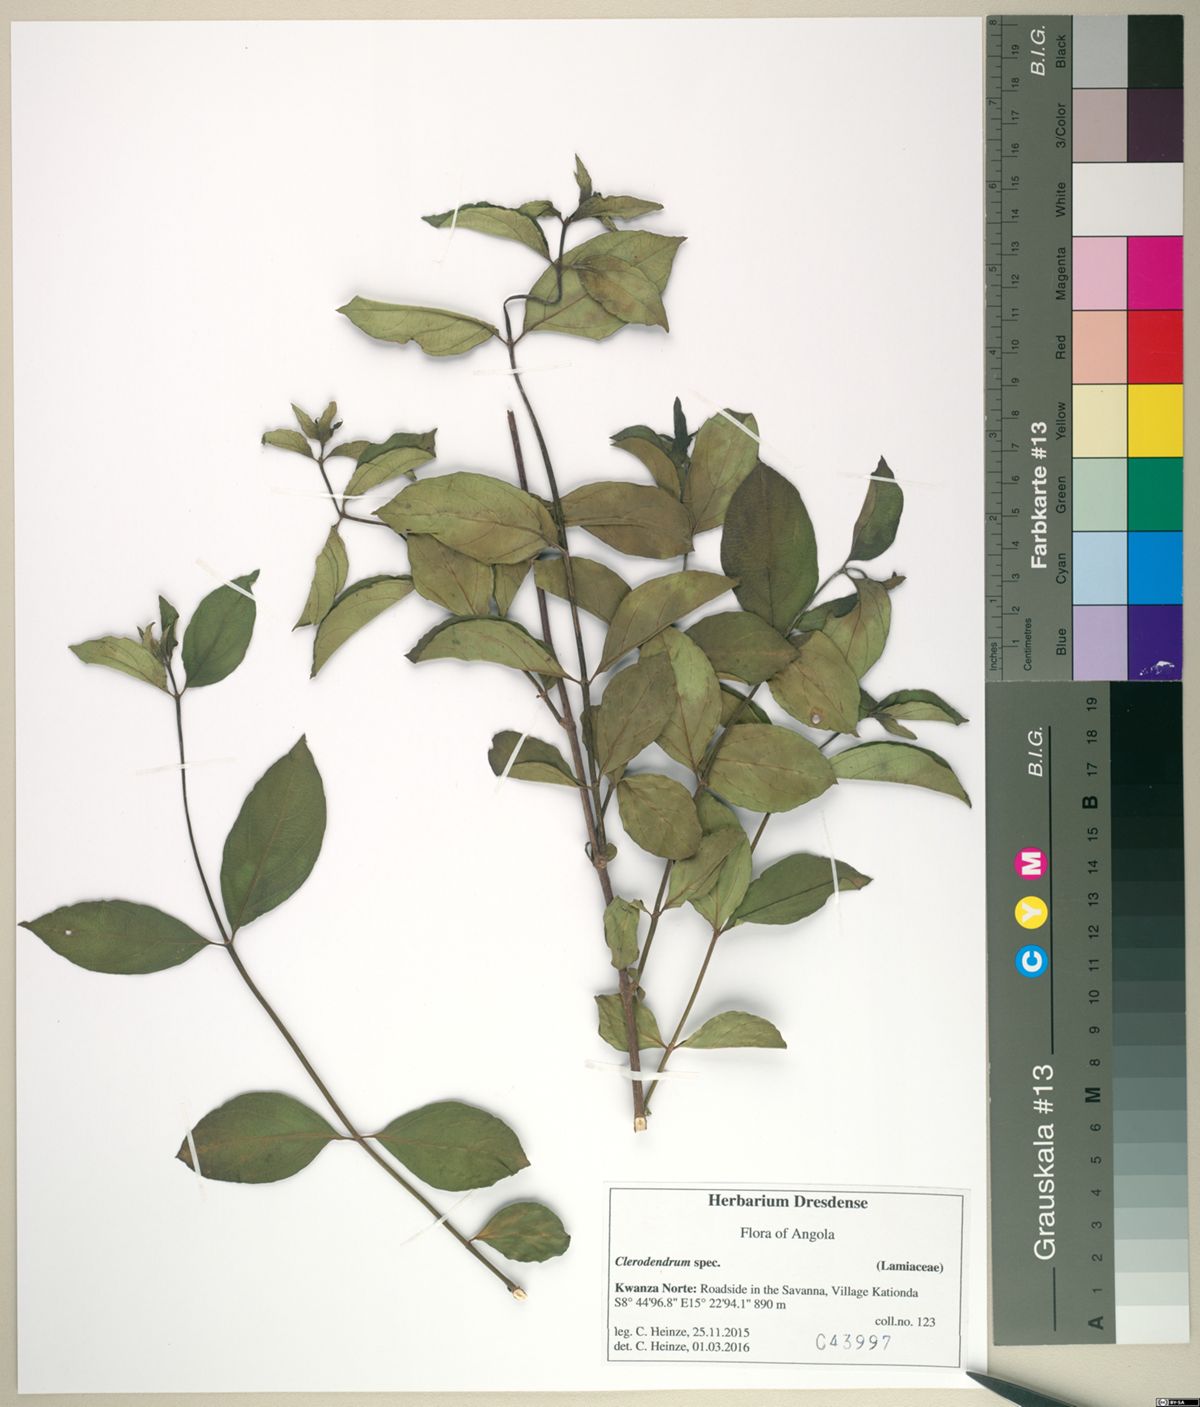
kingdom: Plantae
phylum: Tracheophyta
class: Magnoliopsida
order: Lamiales
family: Lamiaceae
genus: Clerodendrum
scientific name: Clerodendrum
